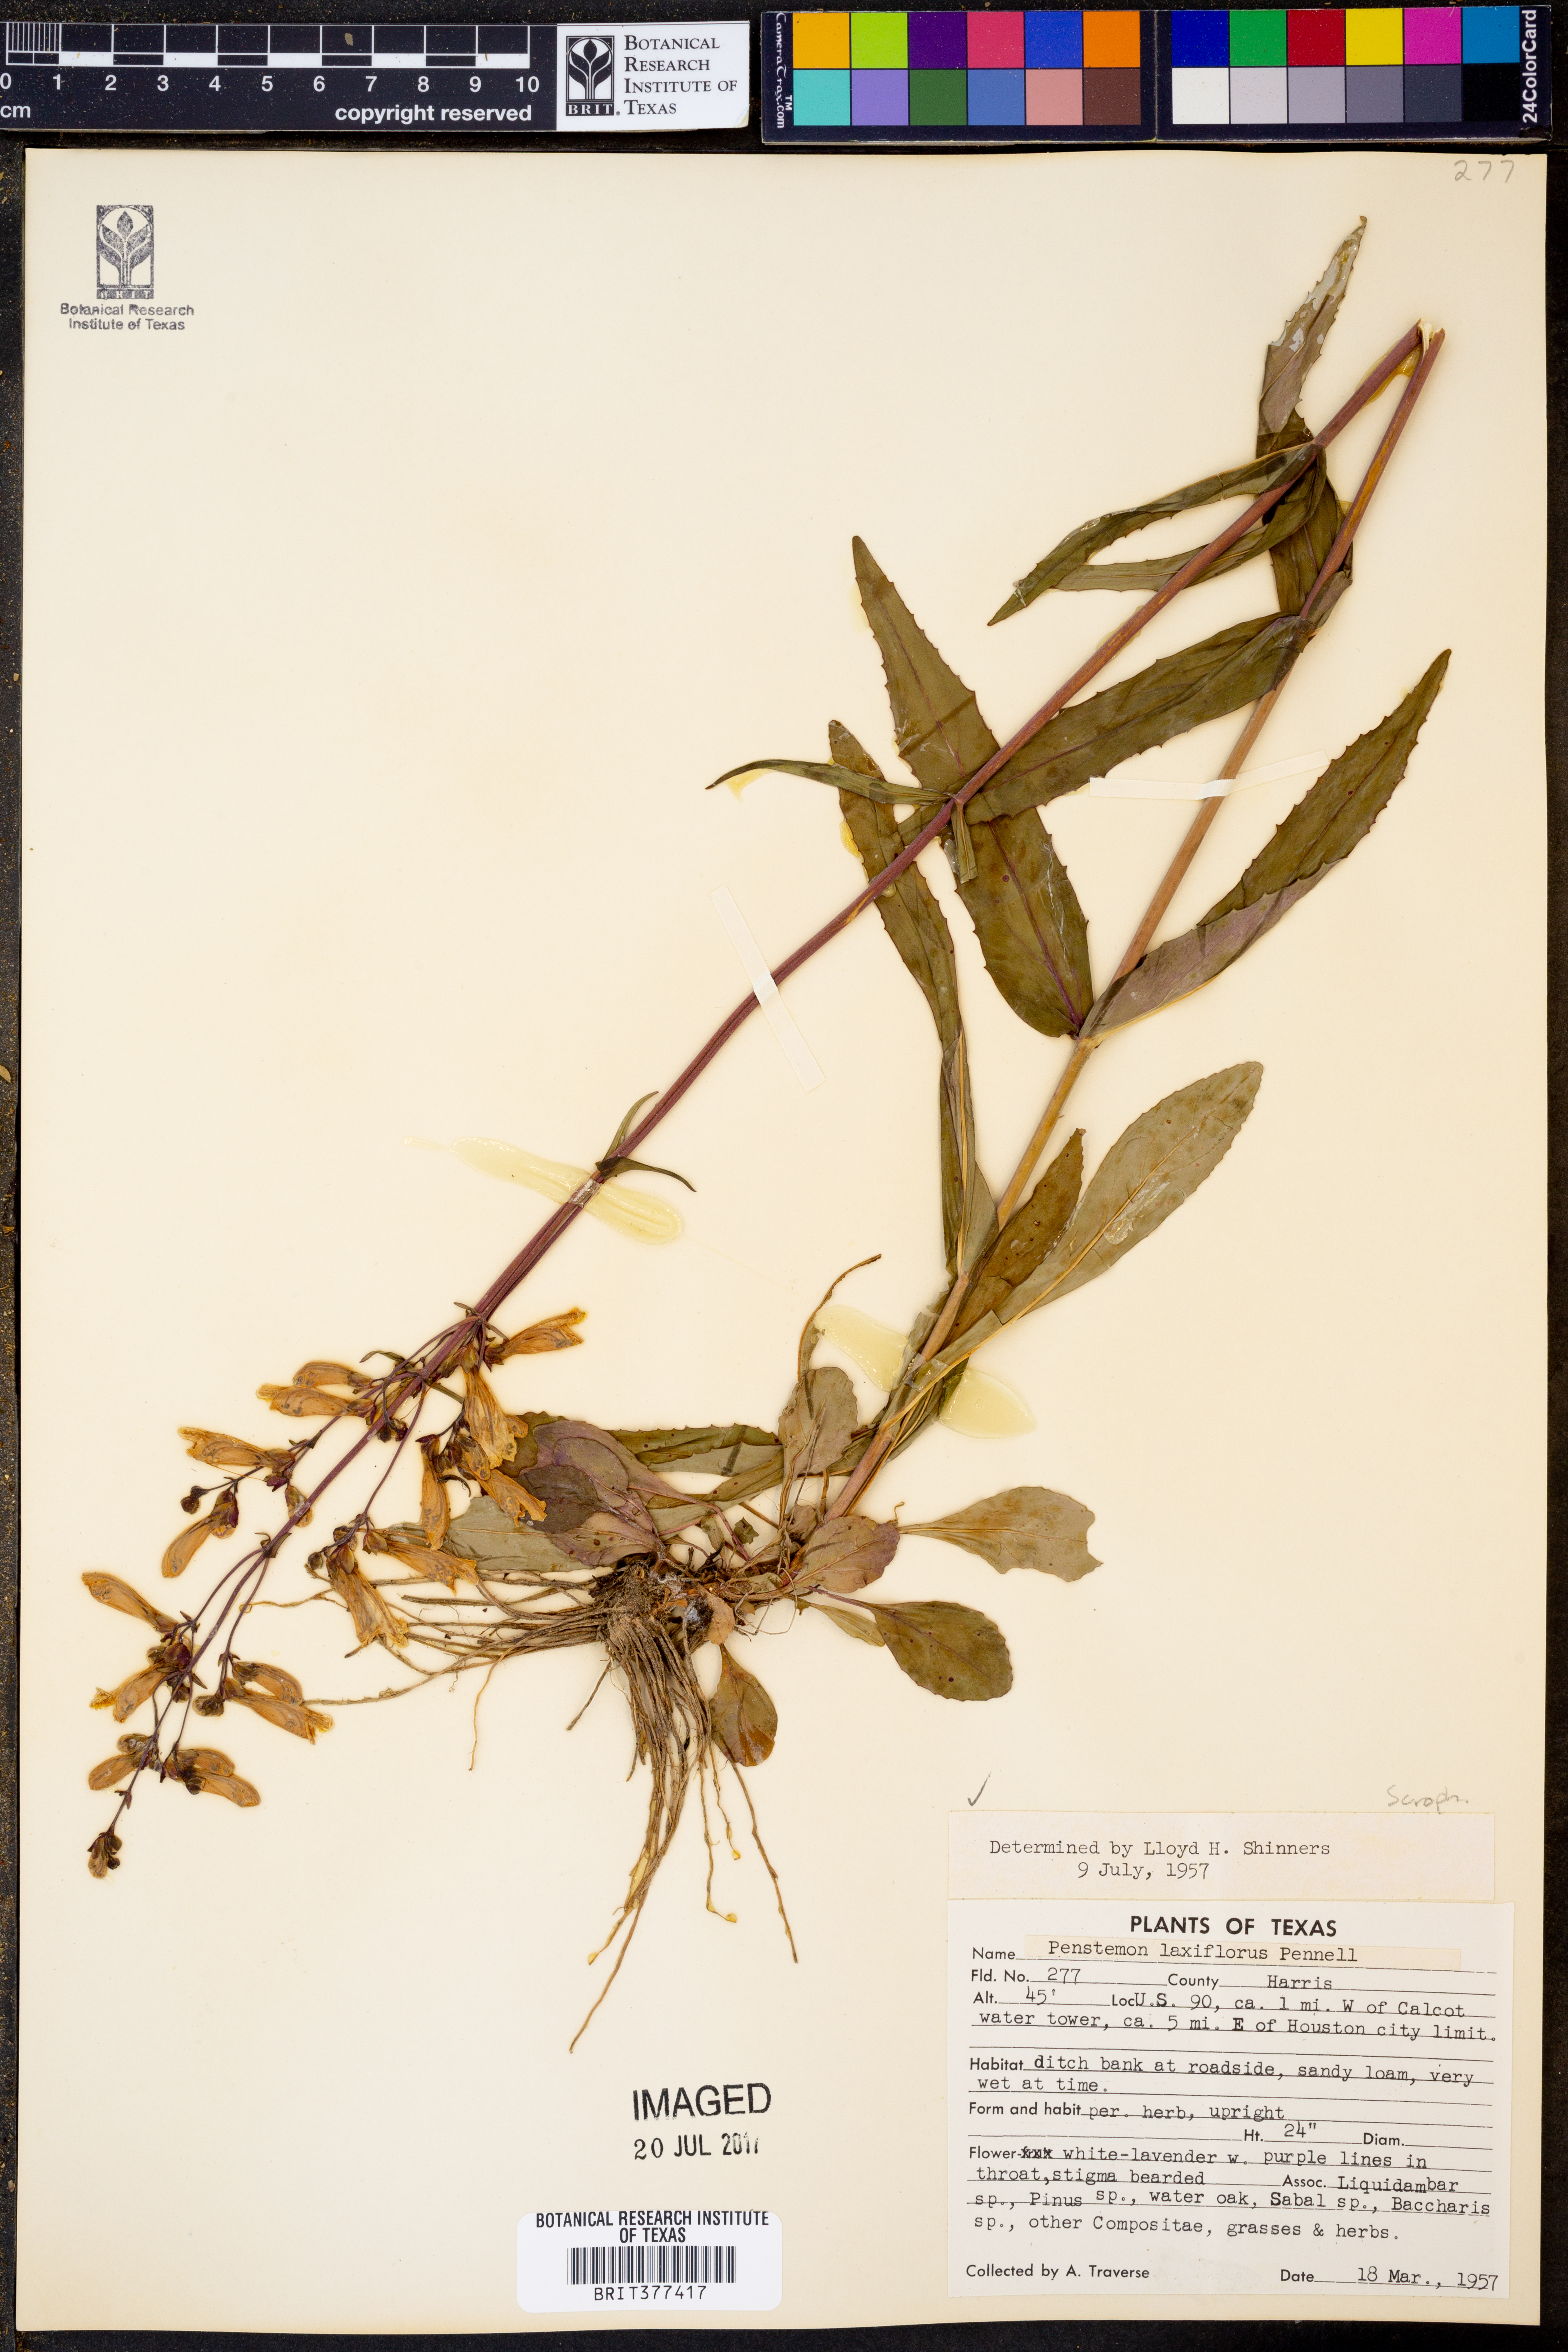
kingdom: Plantae
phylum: Tracheophyta
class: Magnoliopsida
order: Lamiales
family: Plantaginaceae
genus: Penstemon
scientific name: Penstemon laxiflorus
